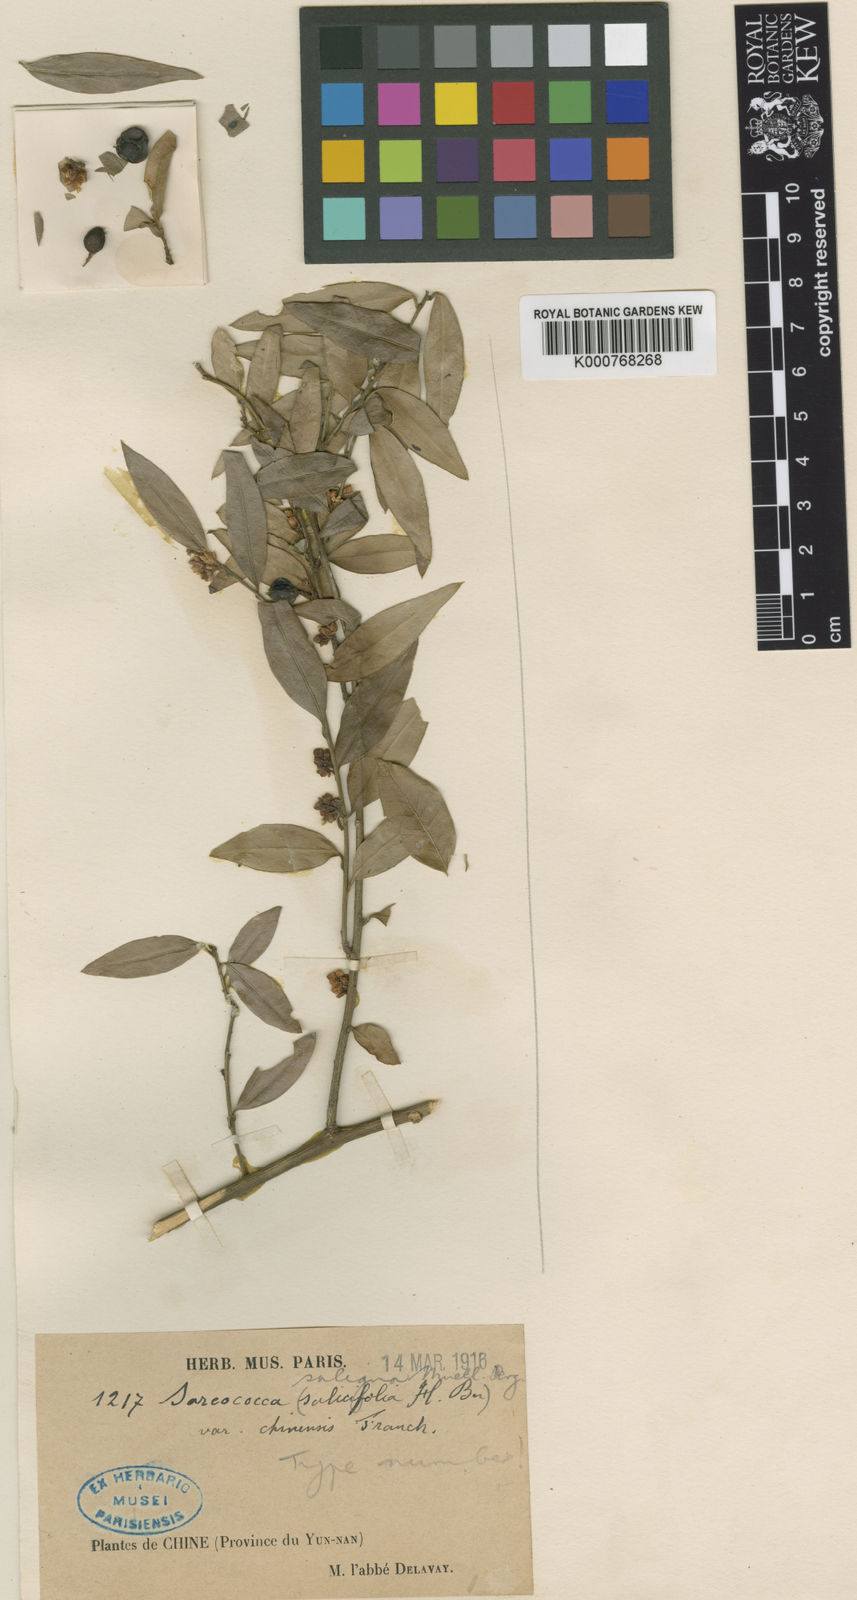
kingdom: Plantae
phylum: Tracheophyta
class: Magnoliopsida
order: Buxales
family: Buxaceae
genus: Sarcococca
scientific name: Sarcococca ruscifolia
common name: Fragrant sweet-box
